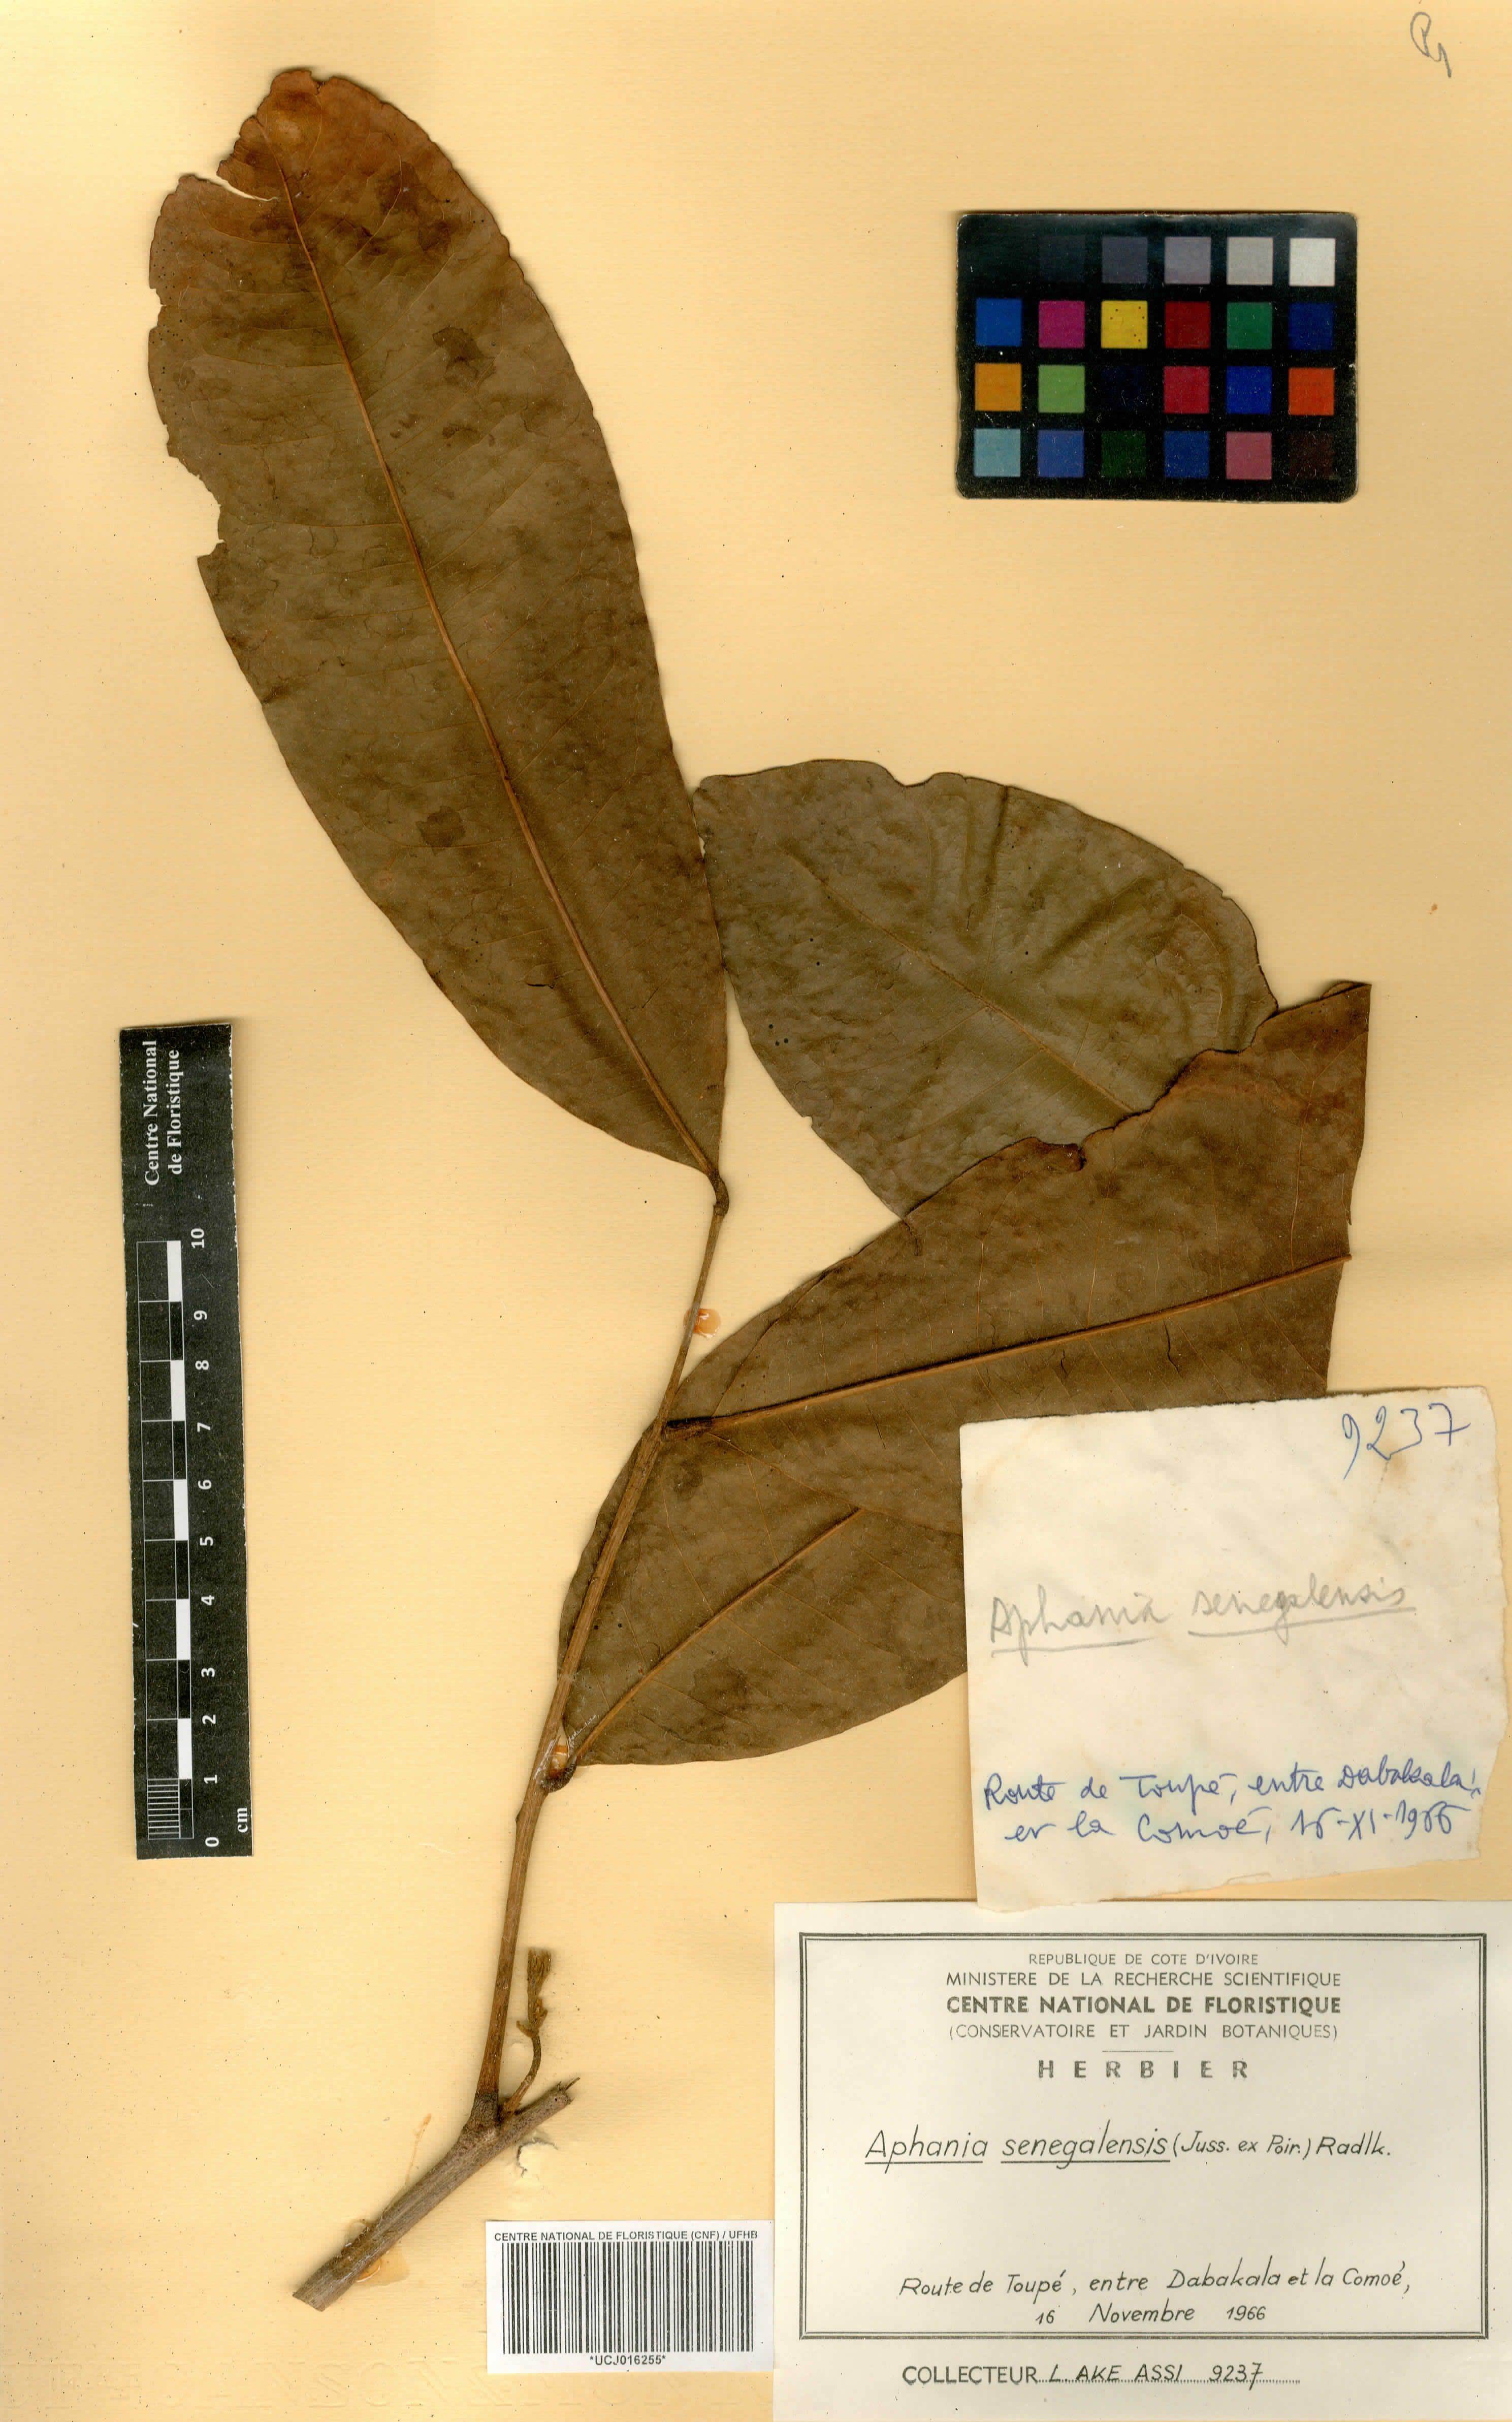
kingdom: Plantae
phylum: Tracheophyta
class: Magnoliopsida
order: Sapindales
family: Sapindaceae
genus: Lepisanthes
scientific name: Lepisanthes senegalensis
